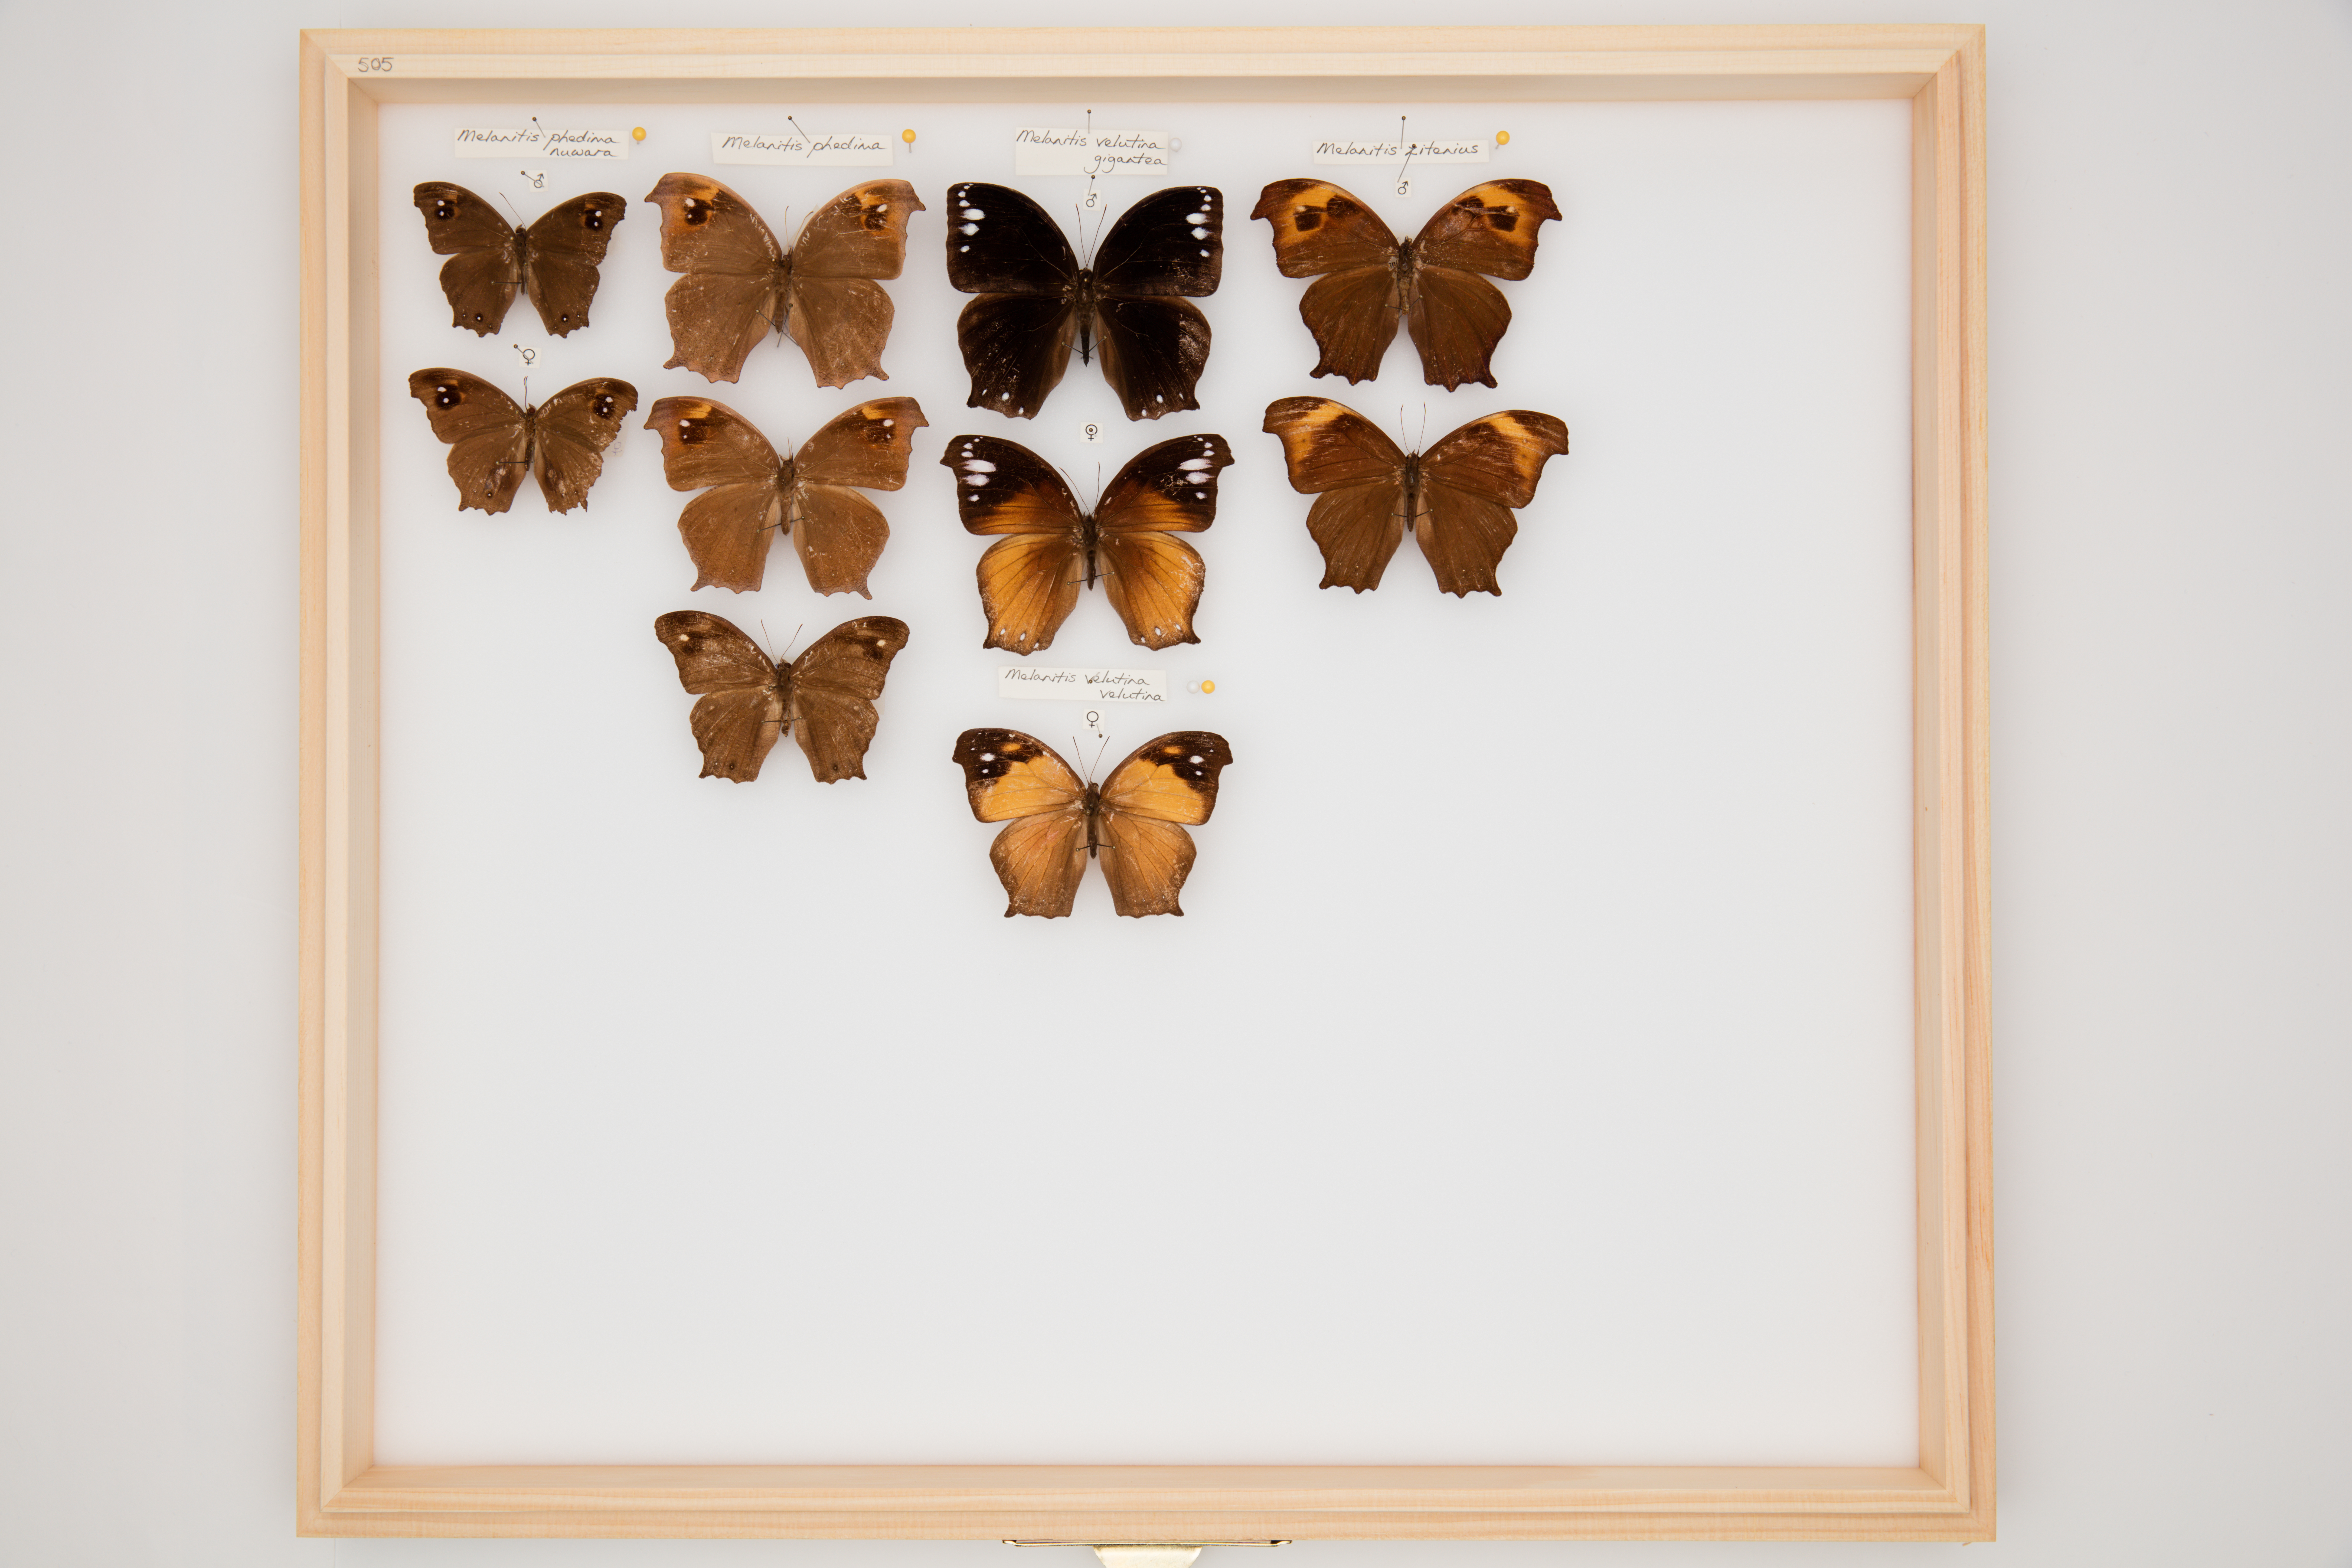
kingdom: Animalia
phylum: Arthropoda
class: Insecta
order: Lepidoptera
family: Nymphalidae
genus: Melanitis
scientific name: Melanitis velutina
